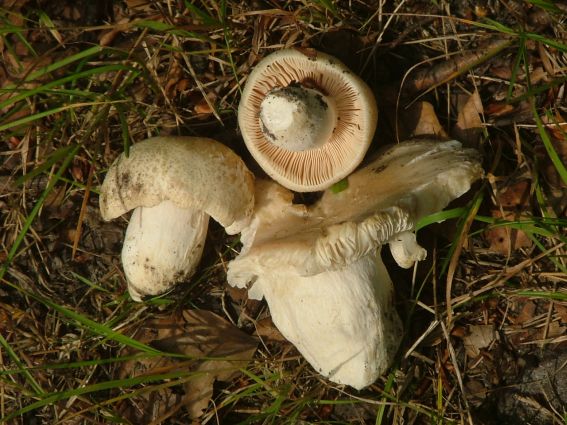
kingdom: Fungi
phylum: Basidiomycota
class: Agaricomycetes
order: Russulales
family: Russulaceae
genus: Russula
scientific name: Russula virescens
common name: spanskgrøn skørhat
